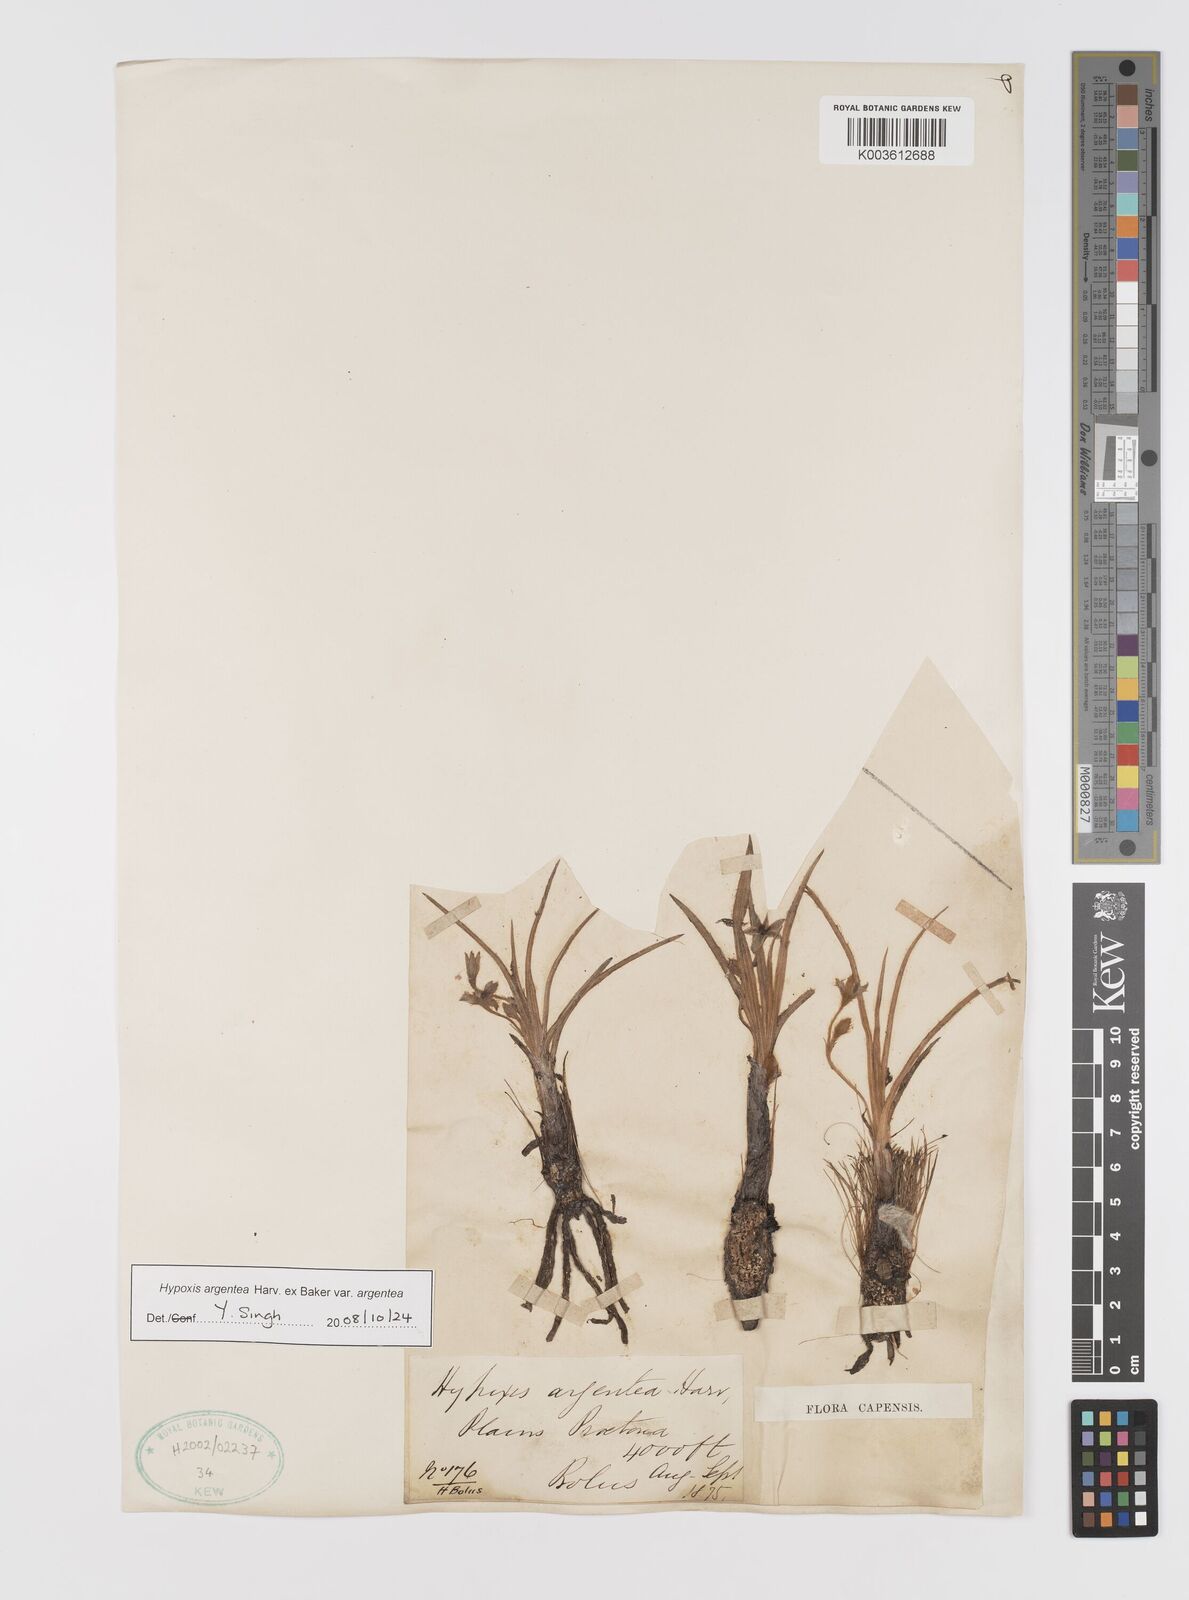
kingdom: Plantae
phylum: Tracheophyta
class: Liliopsida
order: Asparagales
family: Hypoxidaceae
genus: Hypoxis
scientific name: Hypoxis argentea
